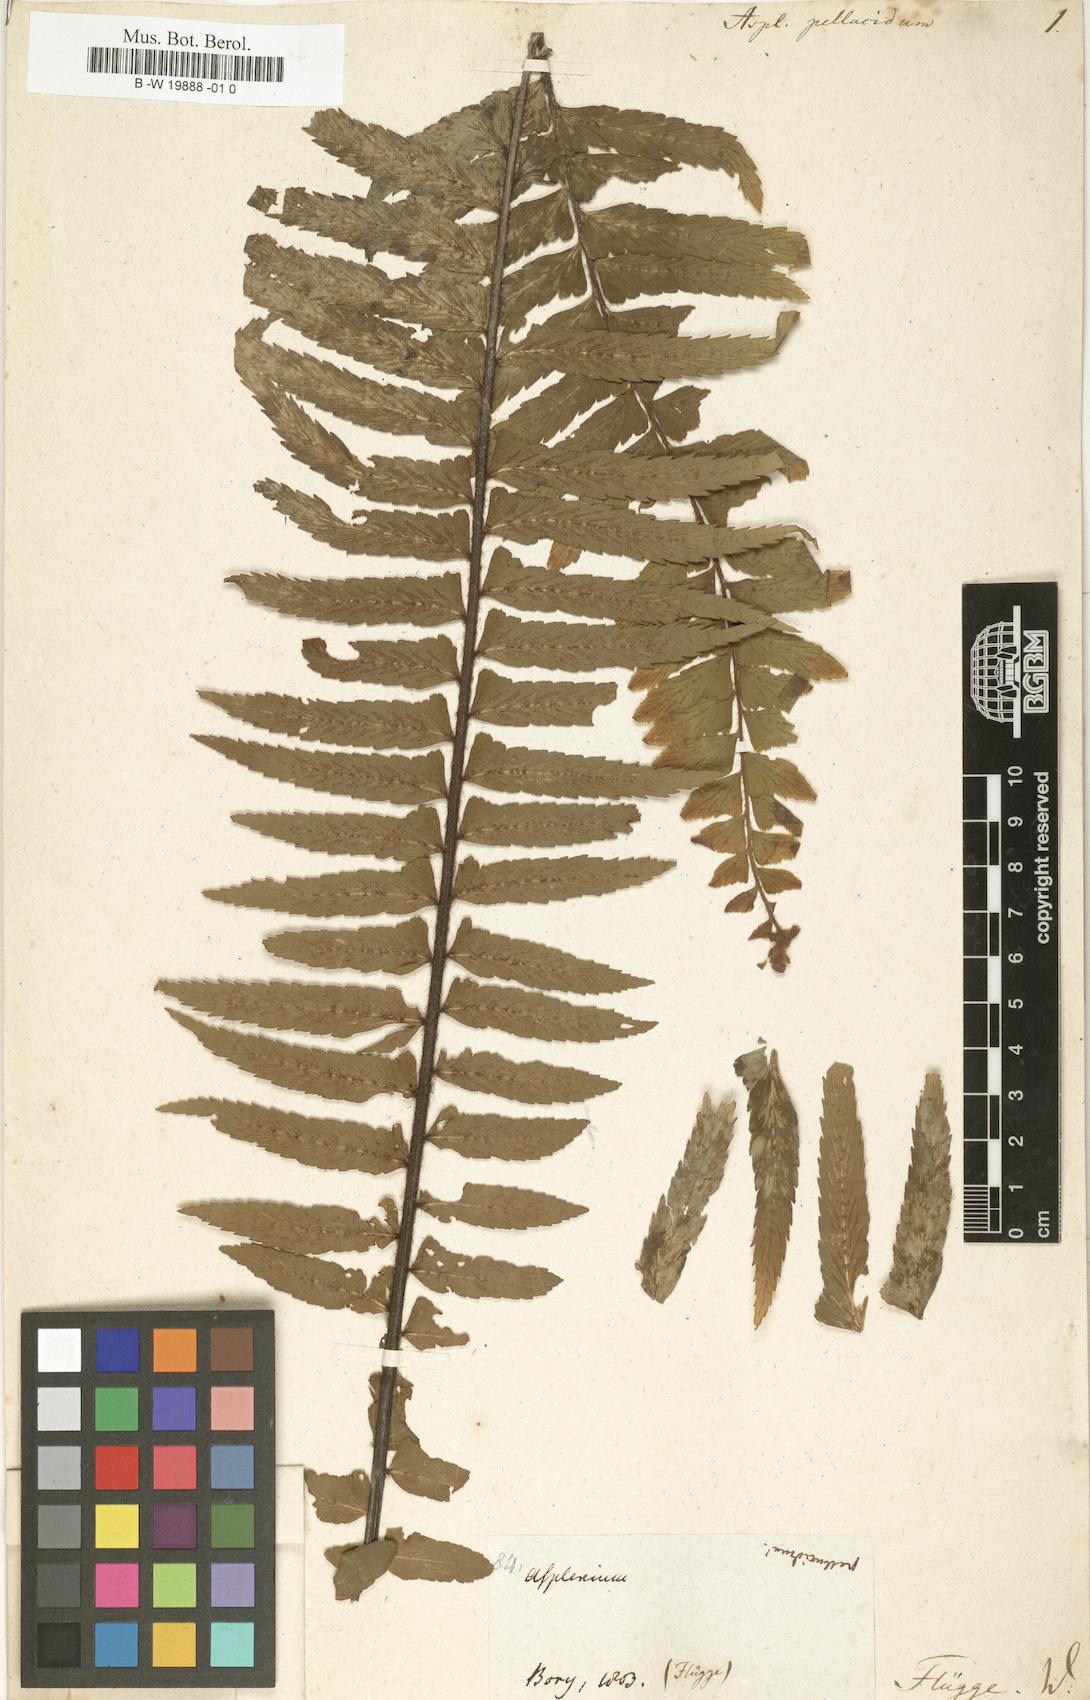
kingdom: Plantae
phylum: Tracheophyta
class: Polypodiopsida
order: Polypodiales
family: Aspleniaceae
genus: Asplenium
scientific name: Asplenium pellucidum
